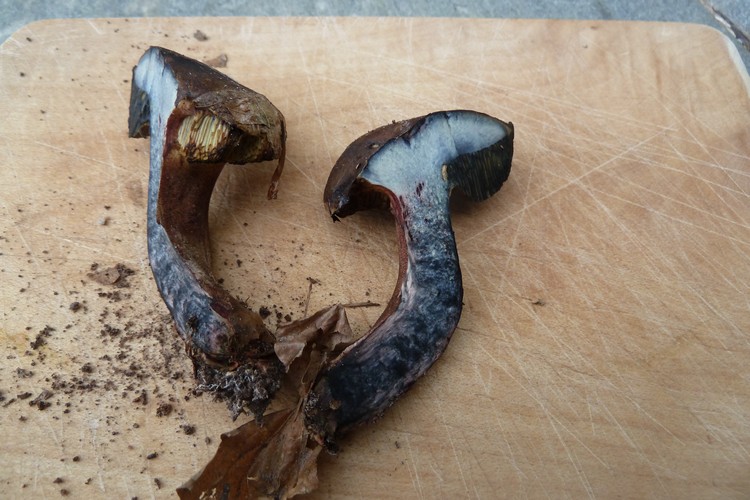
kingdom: Fungi
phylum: Basidiomycota
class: Agaricomycetes
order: Boletales
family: Boletaceae
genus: Cyanoboletus
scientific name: Cyanoboletus pulverulentus
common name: sortblånende rørhat
